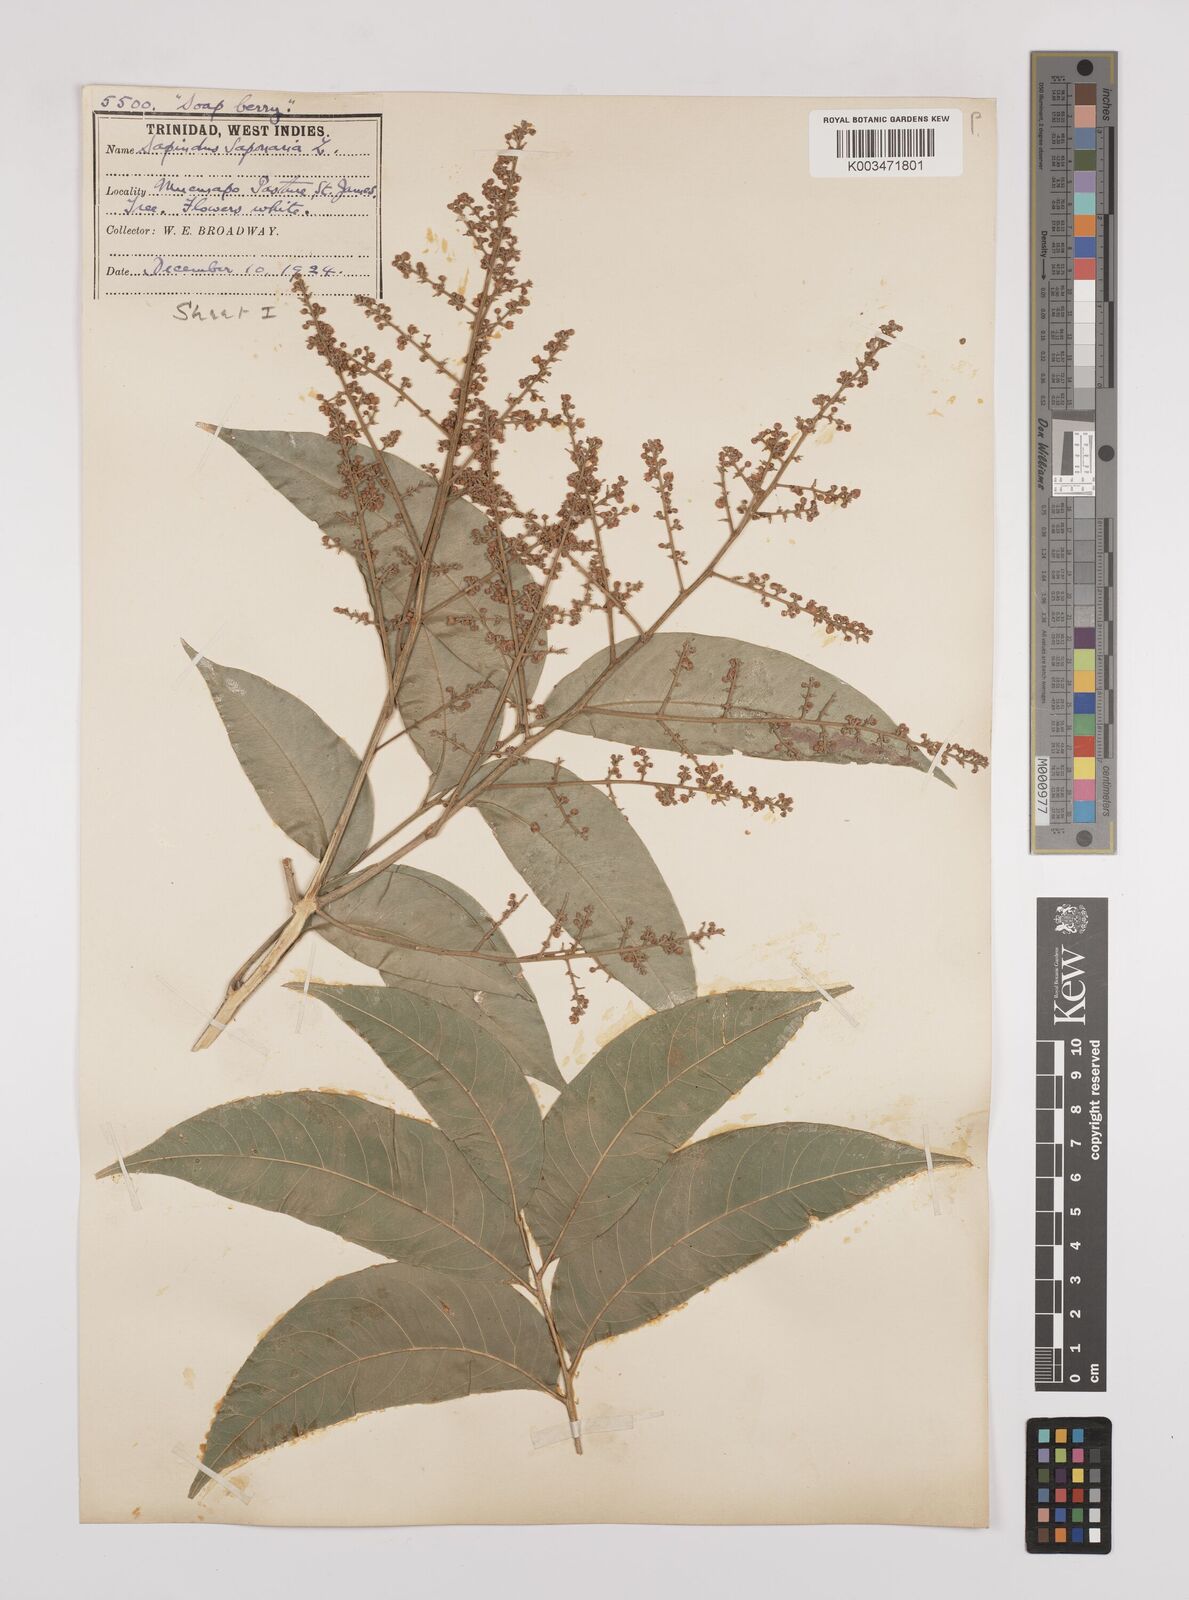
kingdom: Plantae
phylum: Tracheophyta
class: Magnoliopsida
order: Sapindales
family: Sapindaceae
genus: Sapindus
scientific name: Sapindus saponaria
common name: Wingleaf soapberry
